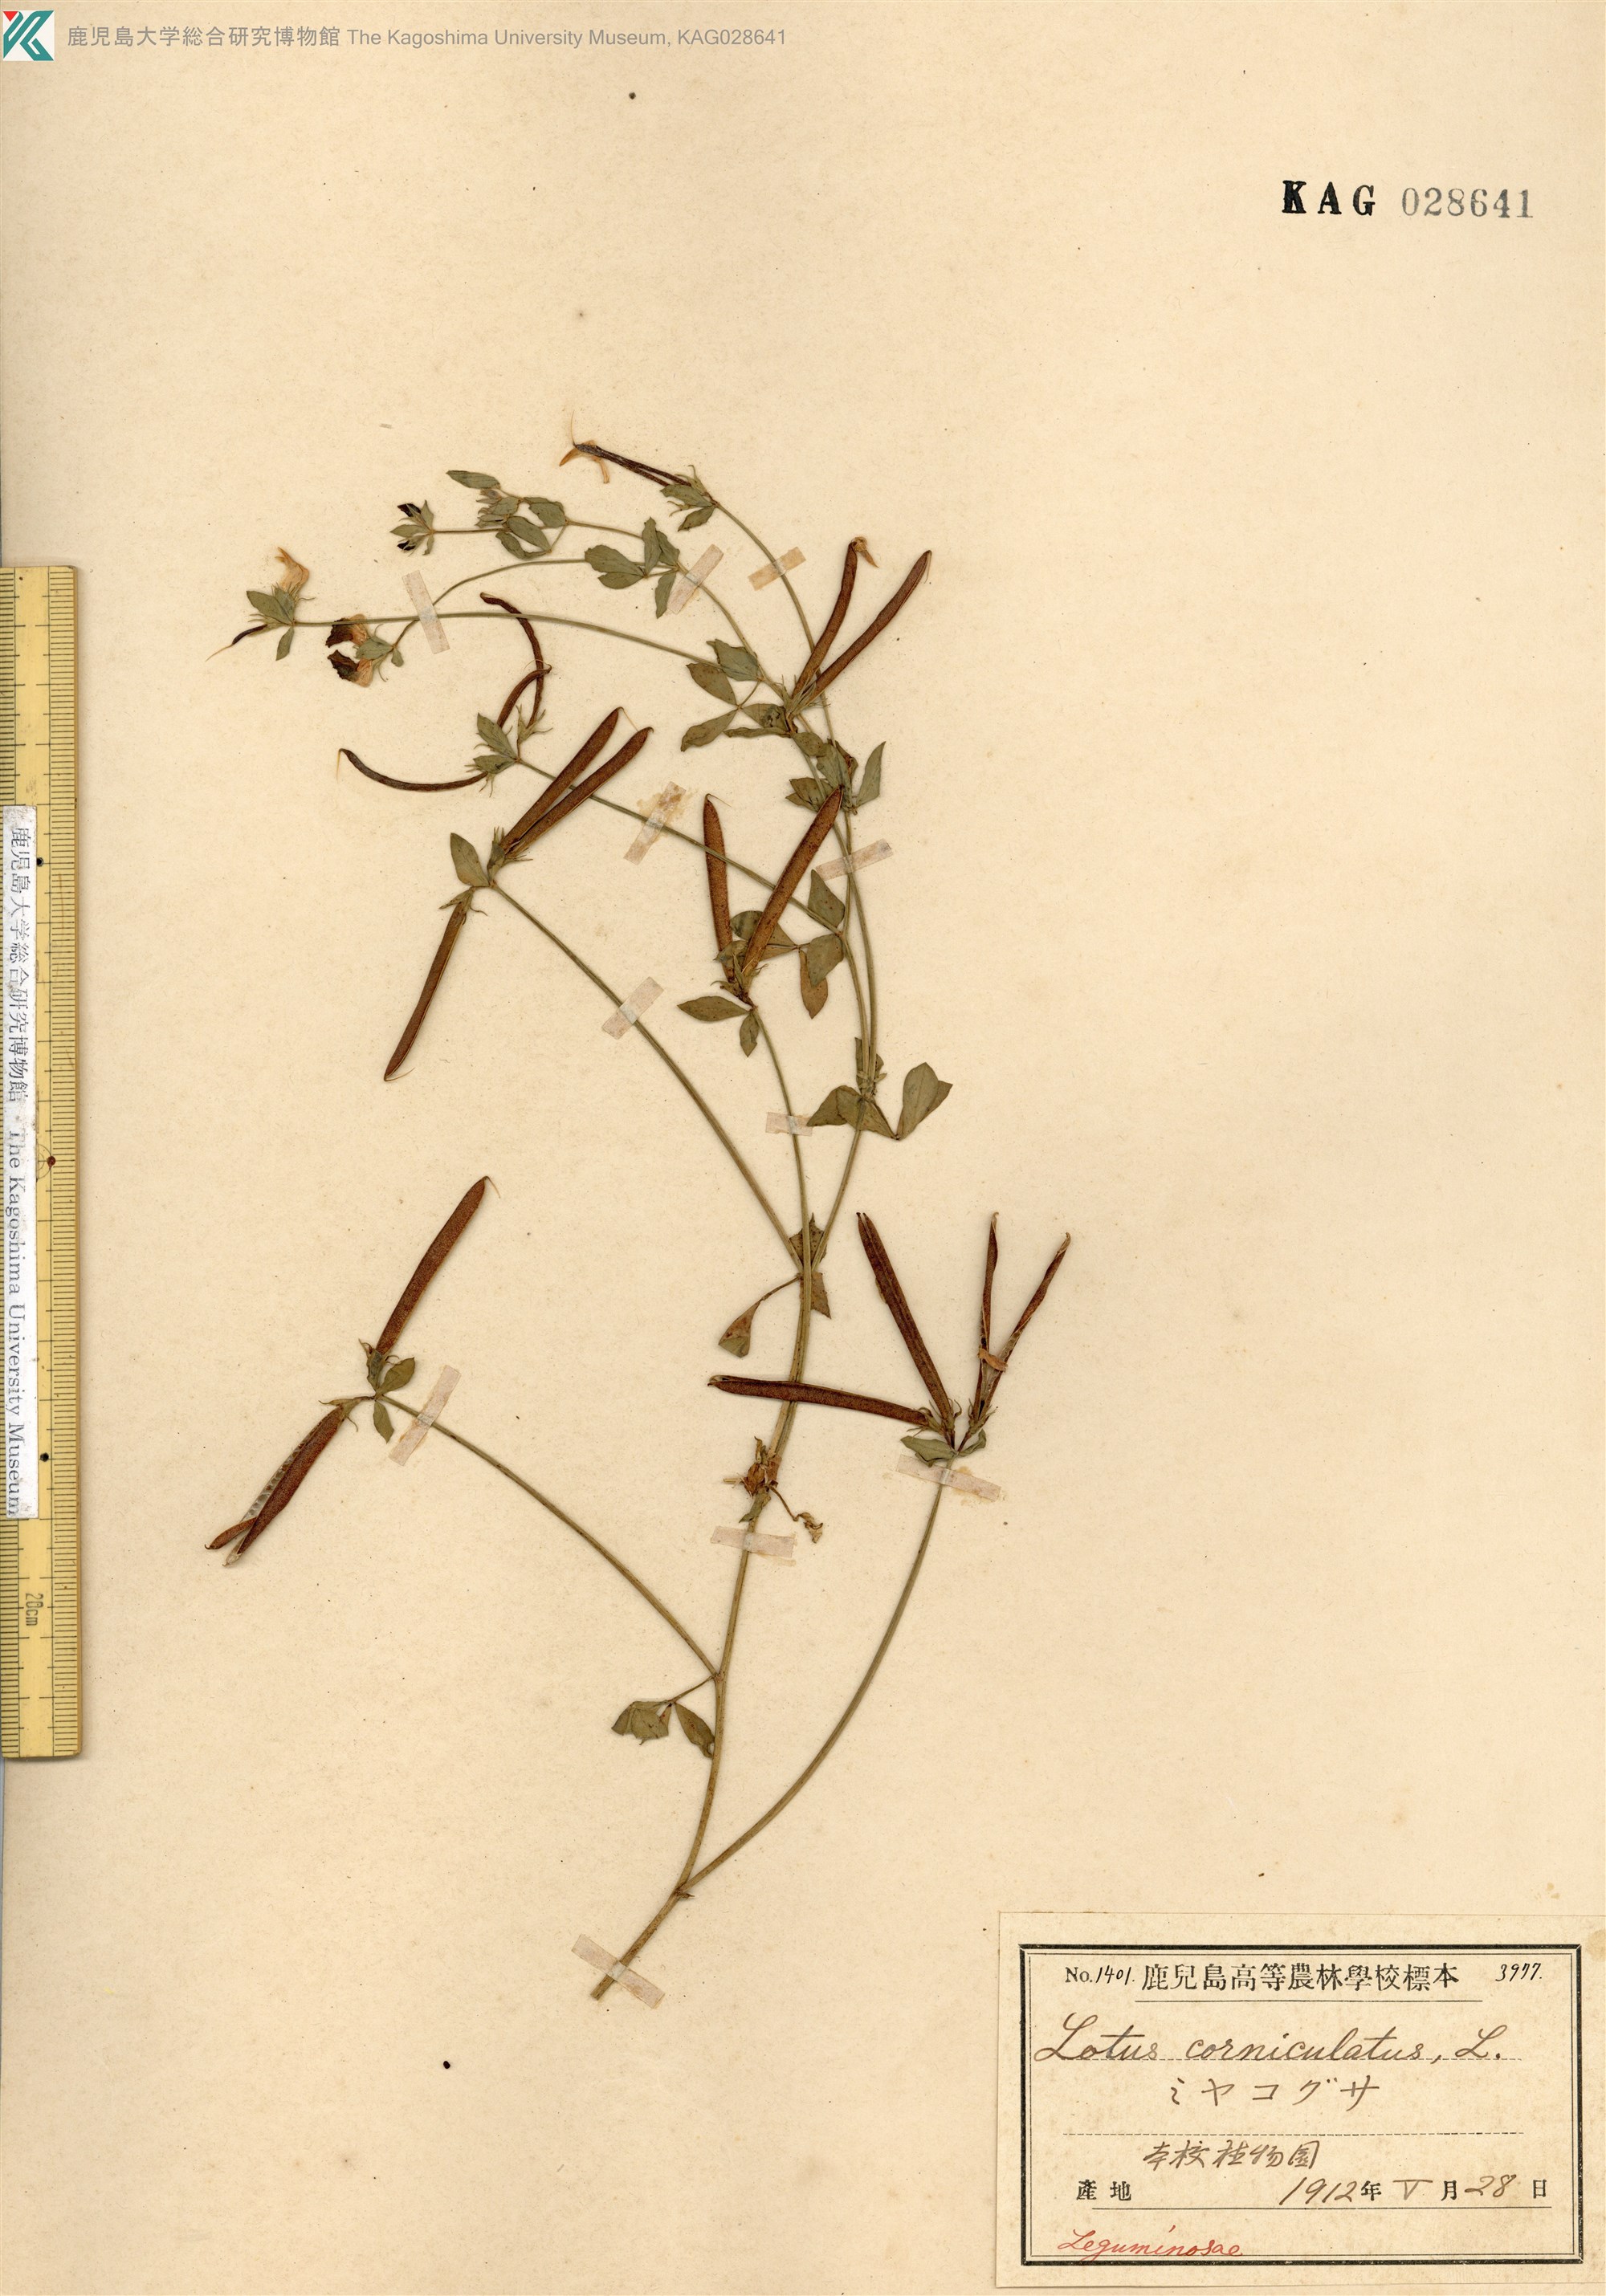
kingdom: Plantae
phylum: Tracheophyta
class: Magnoliopsida
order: Fabales
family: Fabaceae
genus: Lotus
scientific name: Lotus japonicus
